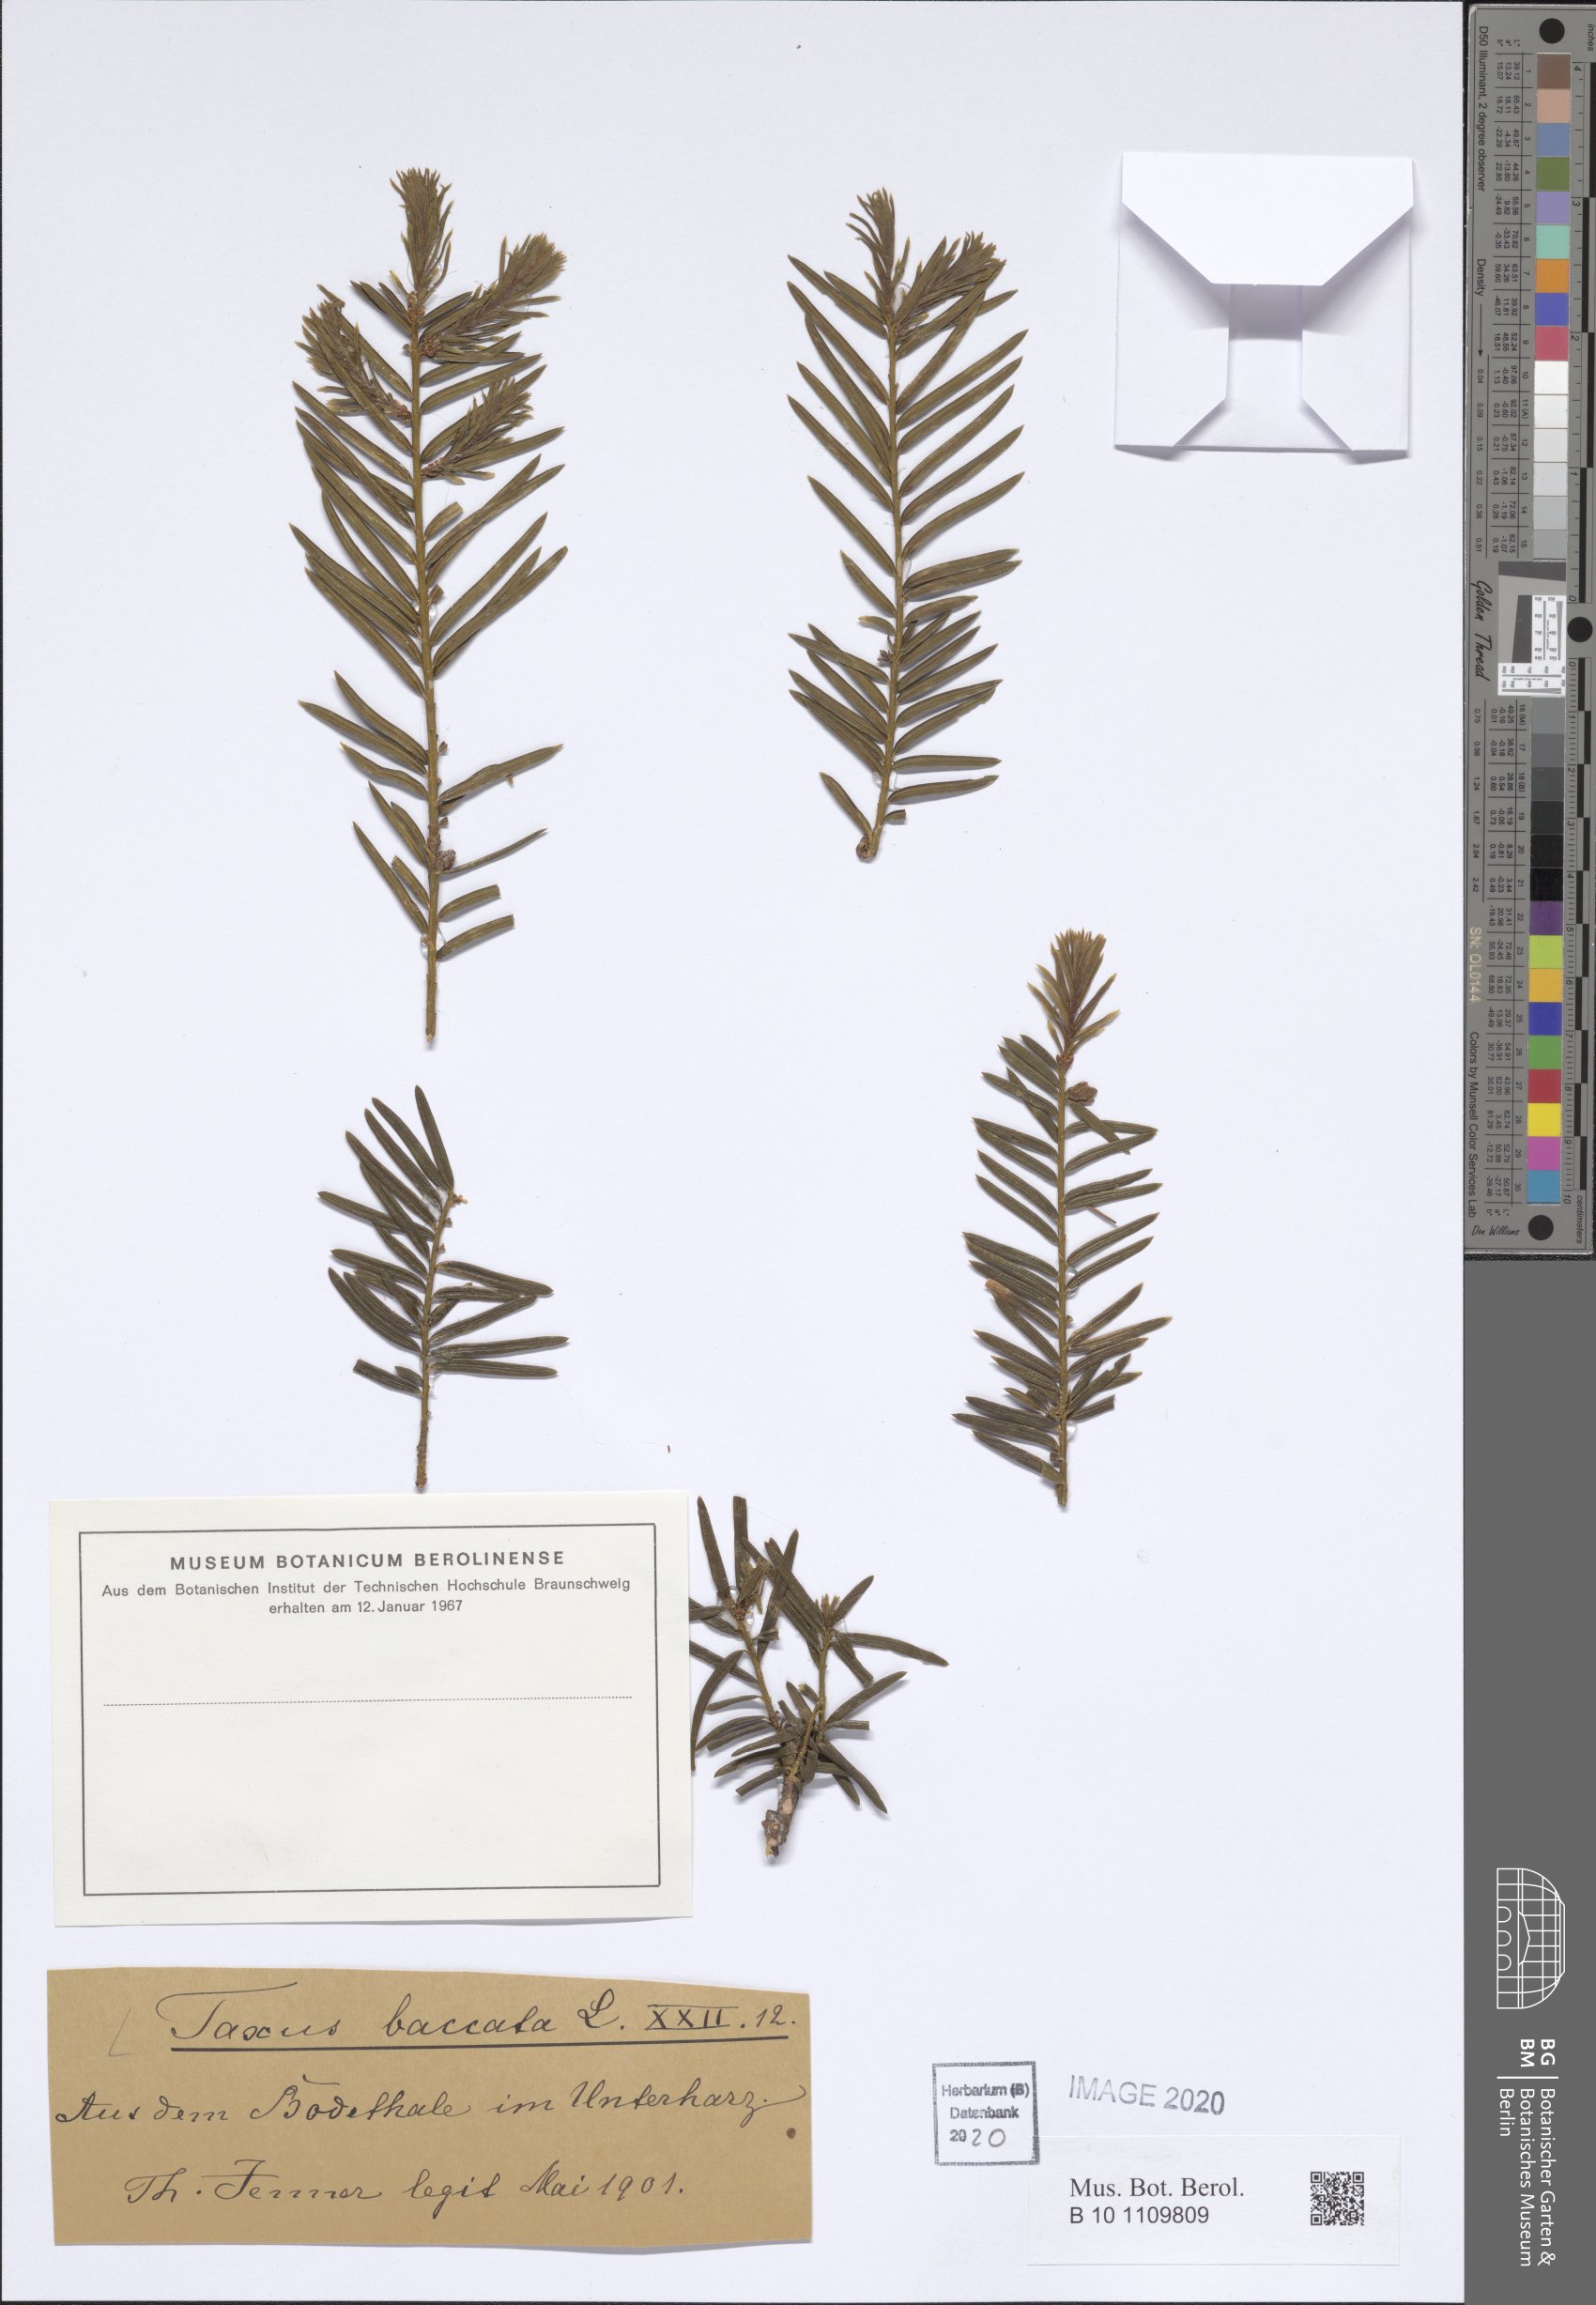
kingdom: Plantae
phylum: Tracheophyta
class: Pinopsida
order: Pinales
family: Taxaceae
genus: Taxus
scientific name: Taxus baccata
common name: Yew
